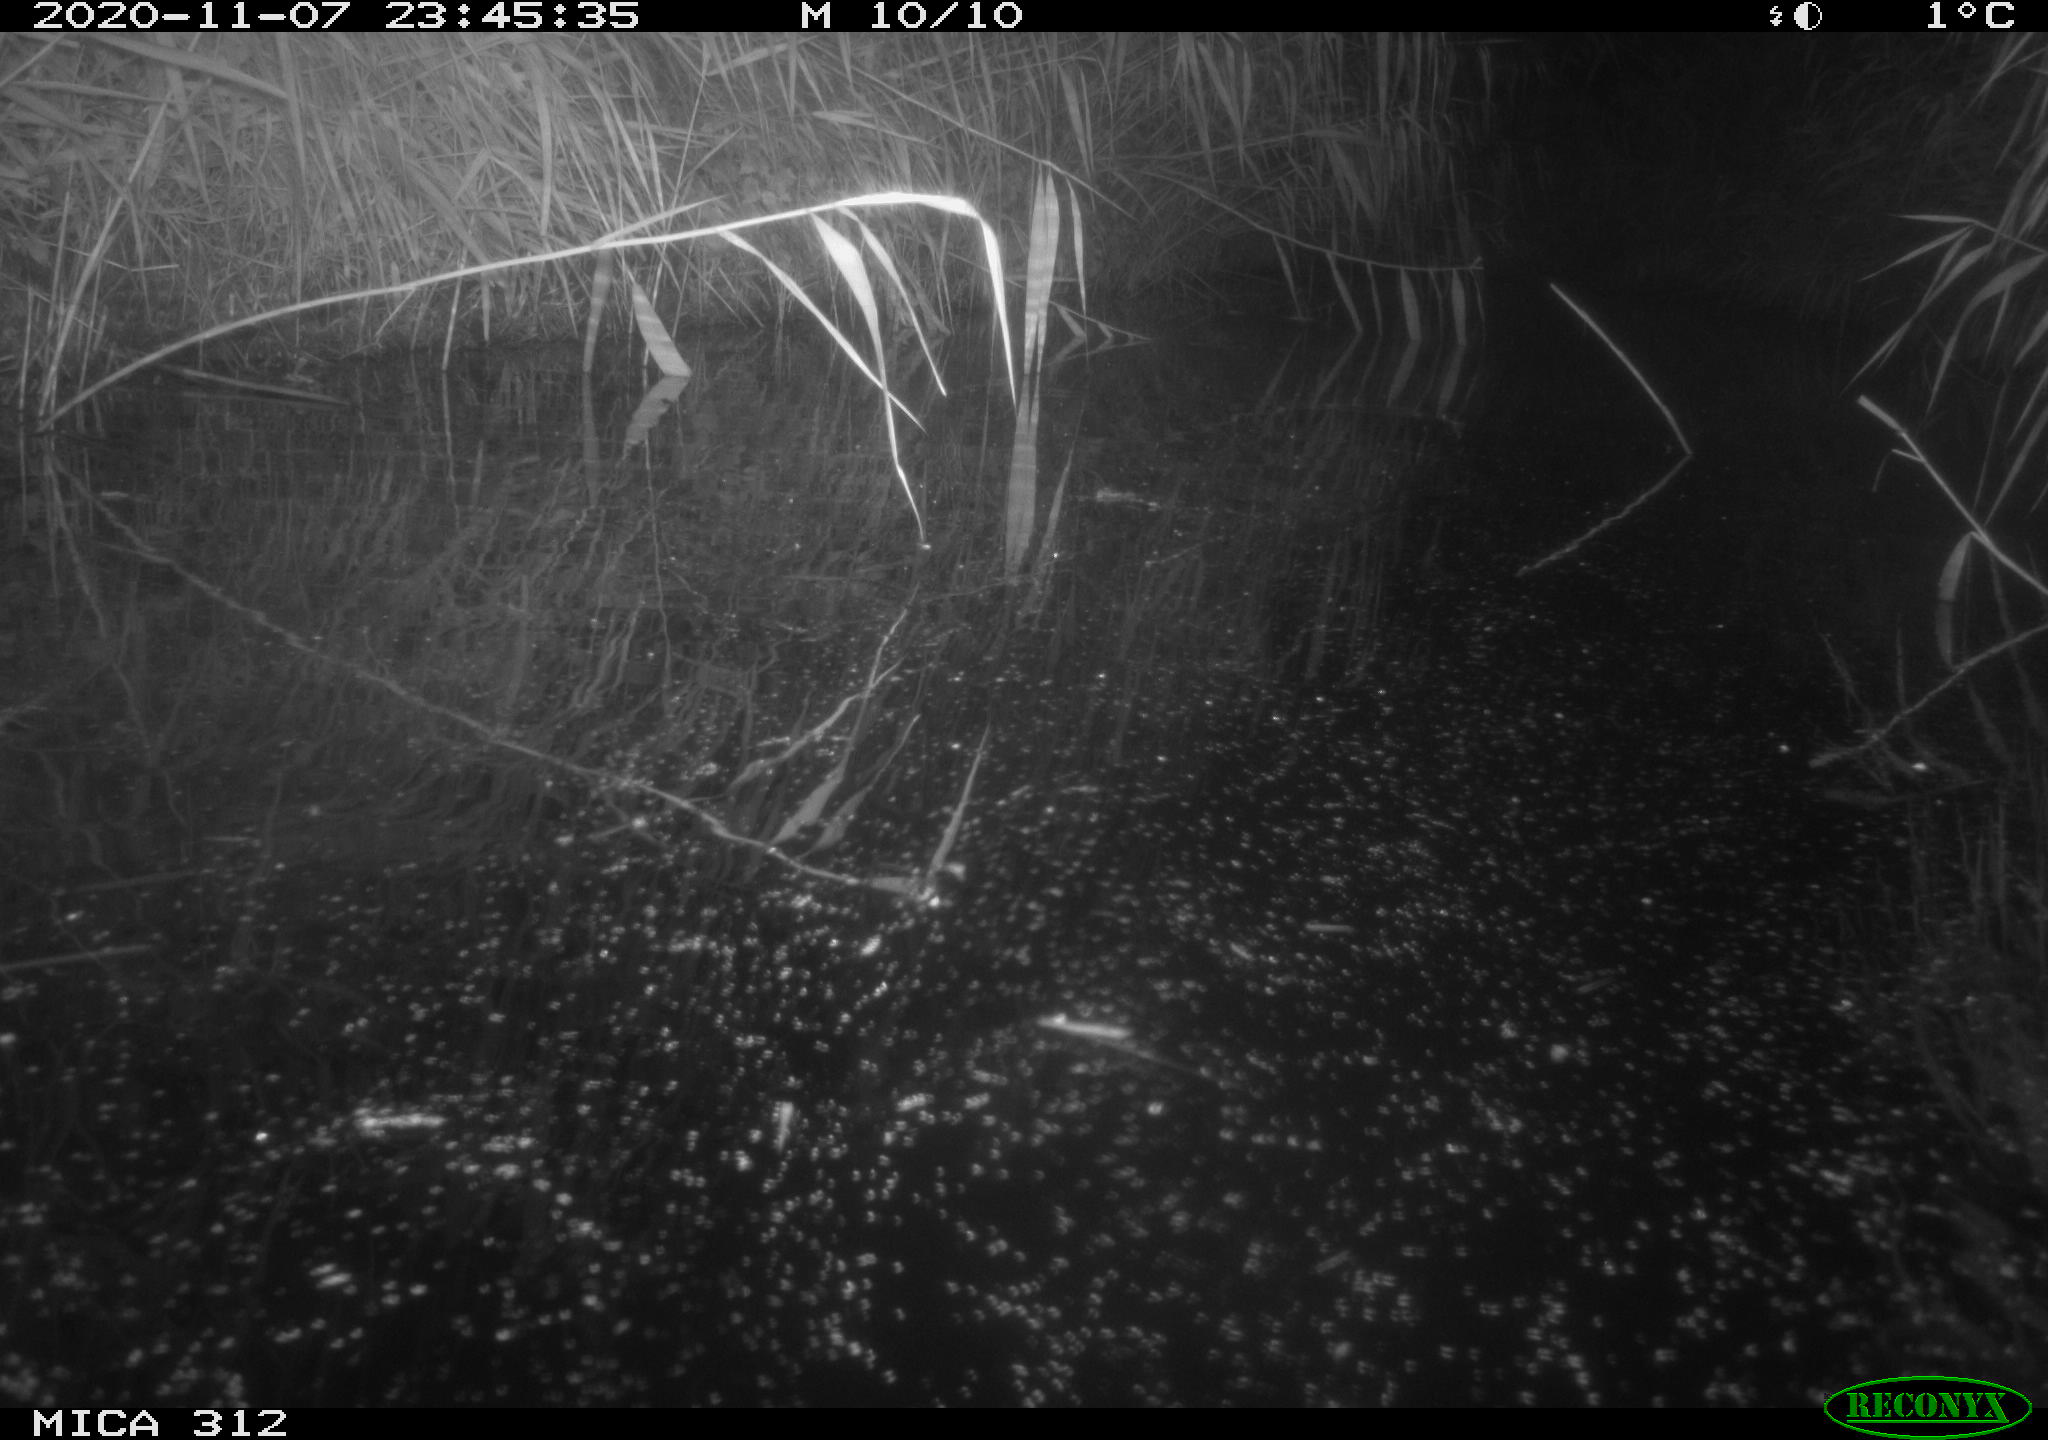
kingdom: Animalia
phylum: Chordata
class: Mammalia
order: Rodentia
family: Muridae
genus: Rattus
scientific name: Rattus norvegicus
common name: Brown rat
